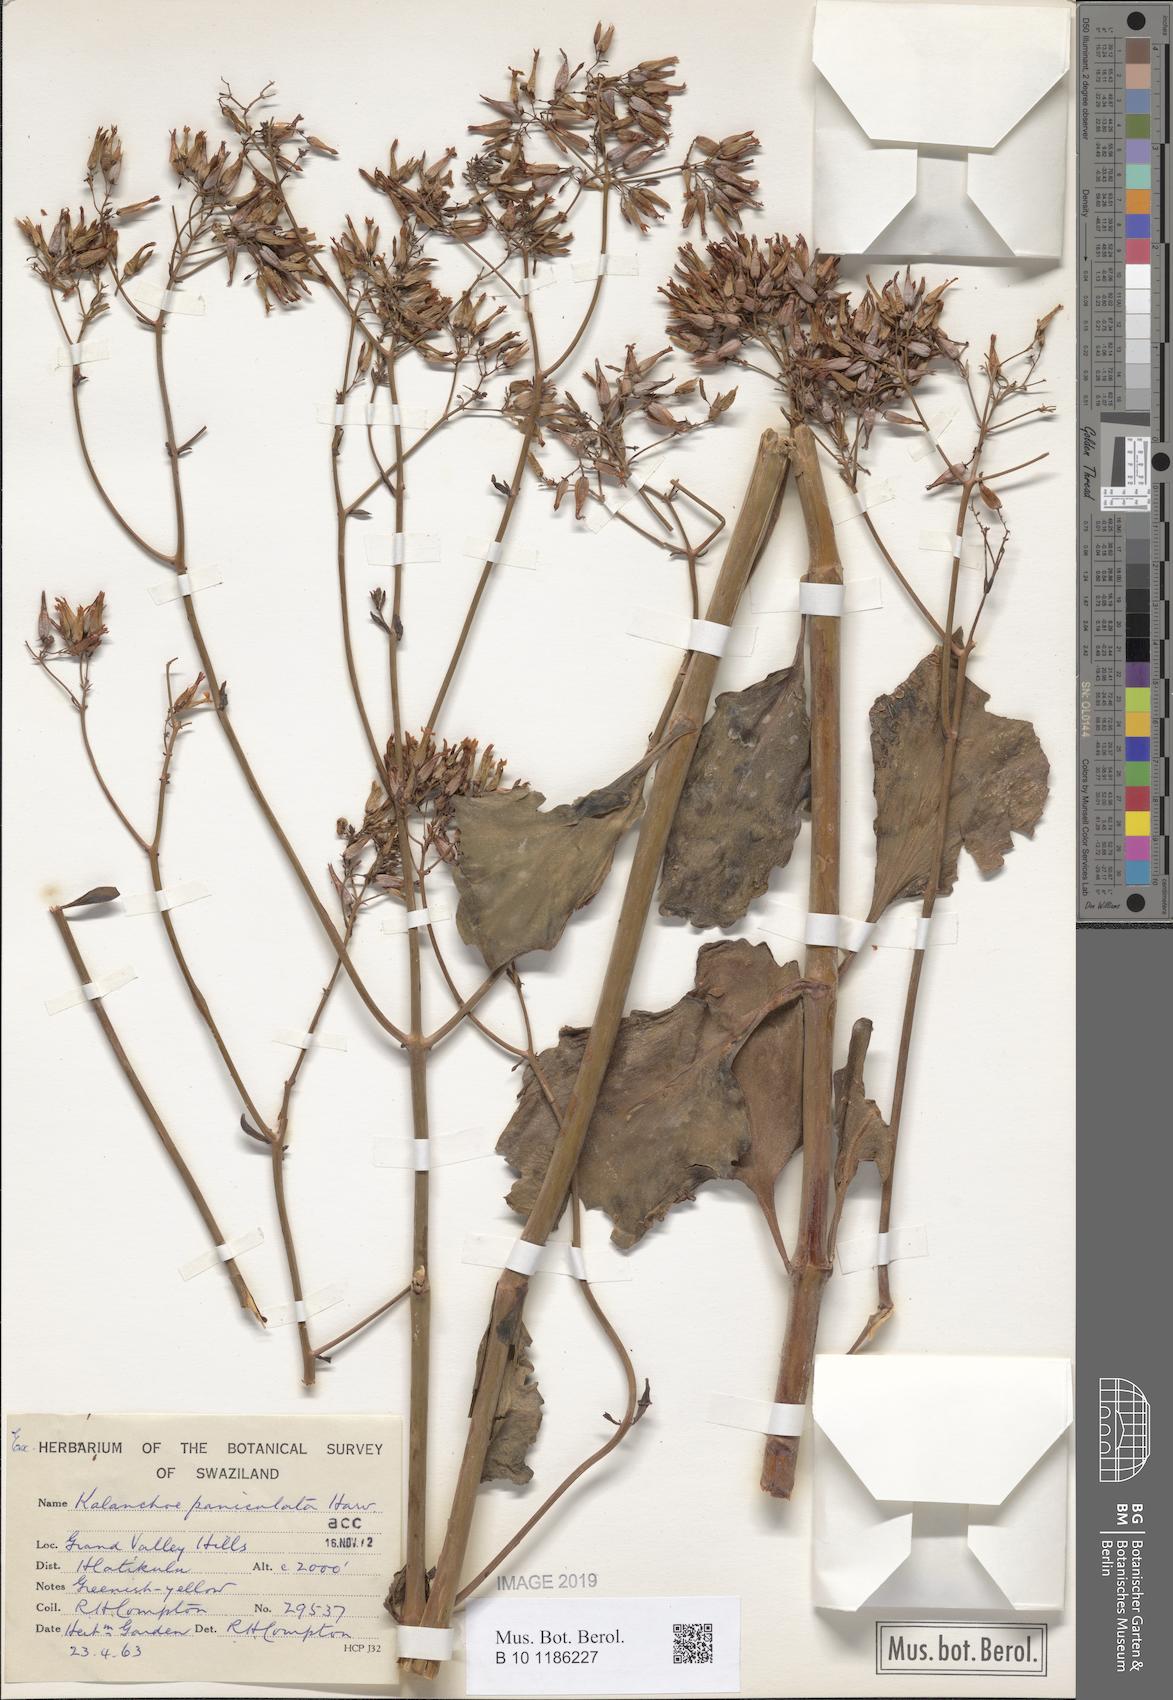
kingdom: Plantae
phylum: Tracheophyta
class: Magnoliopsida
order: Saxifragales
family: Crassulaceae
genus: Kalanchoe
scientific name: Kalanchoe paniculata
